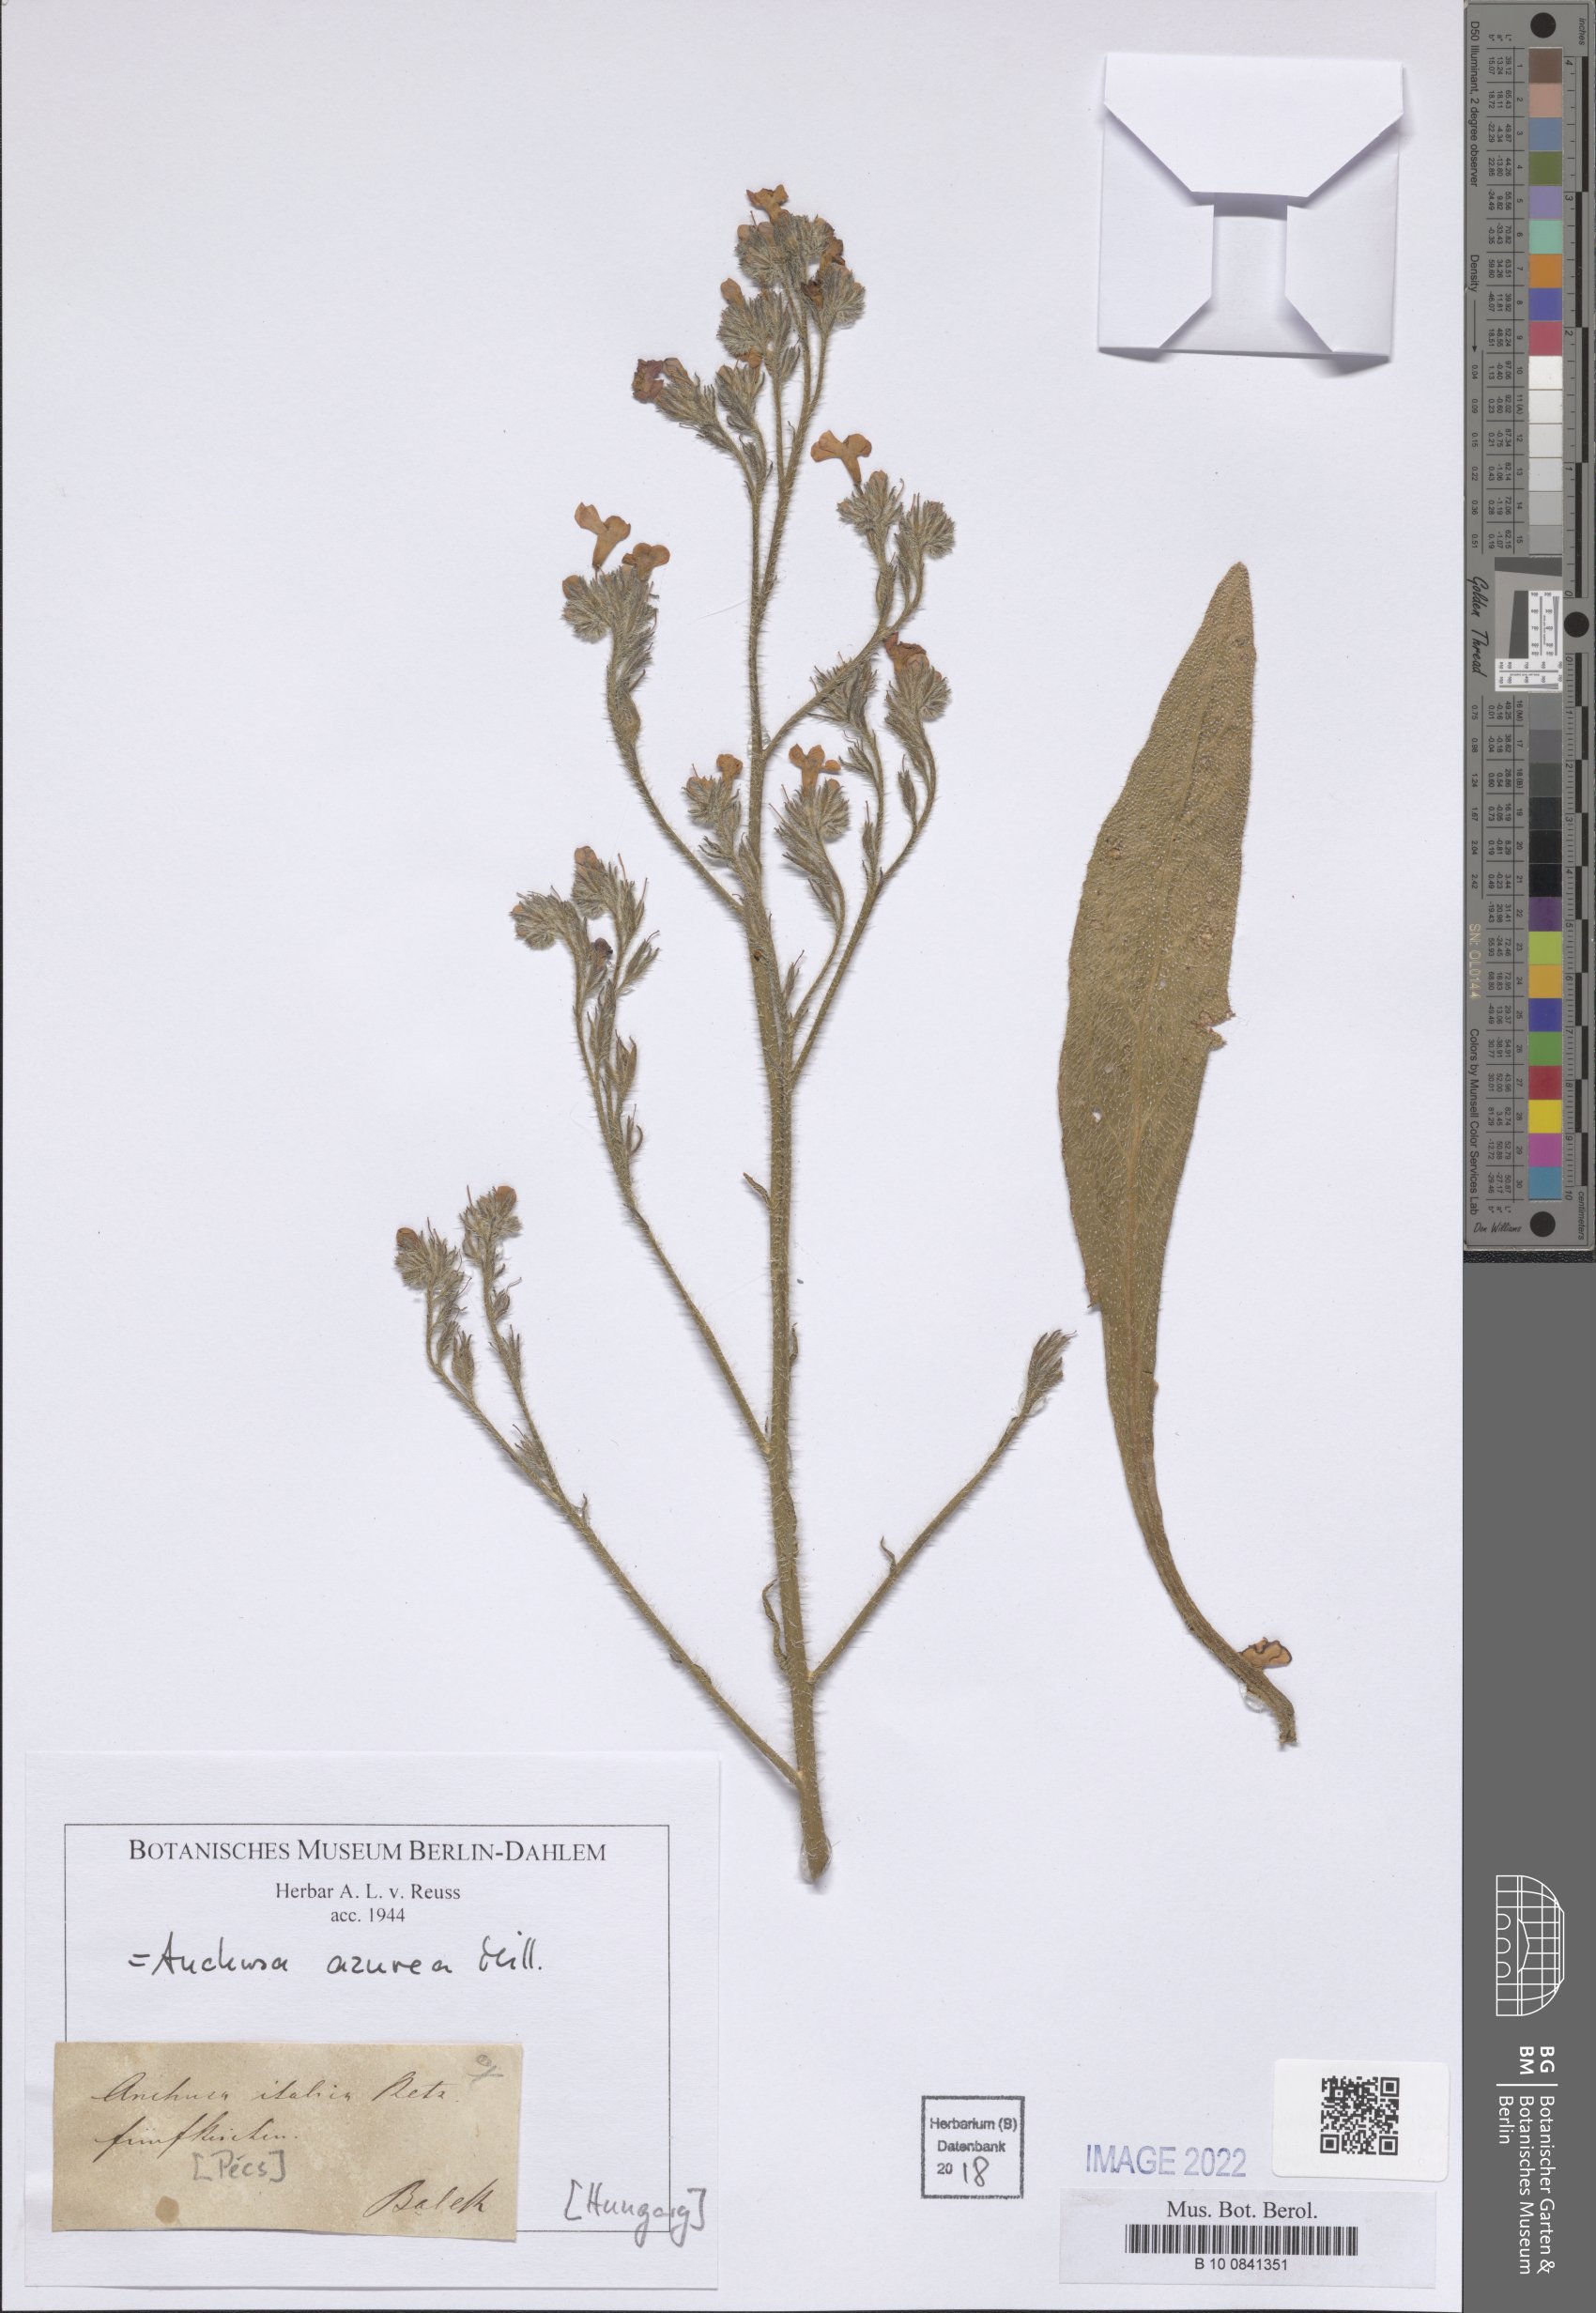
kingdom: Plantae
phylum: Tracheophyta
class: Magnoliopsida
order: Boraginales
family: Boraginaceae
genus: Anchusa
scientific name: Anchusa azurea
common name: Garden anchusa
